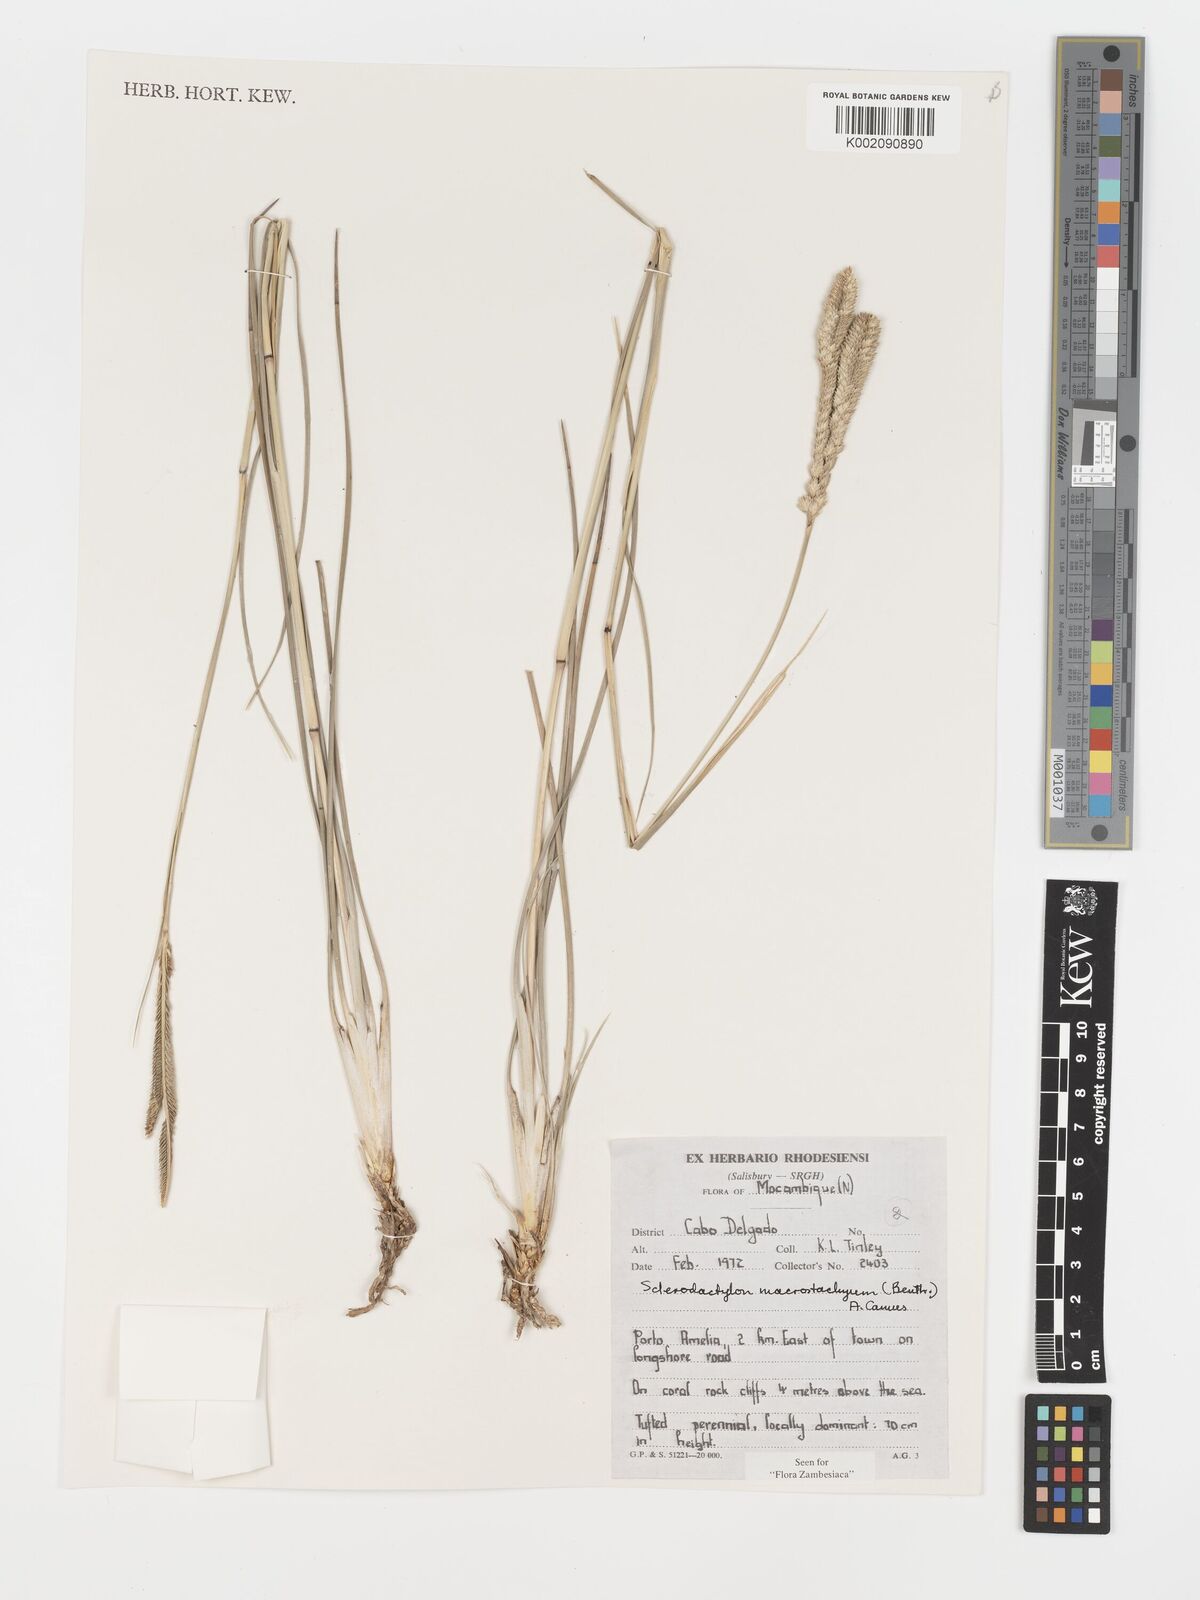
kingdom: Plantae
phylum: Tracheophyta
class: Liliopsida
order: Poales
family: Poaceae
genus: Sclerodactylon
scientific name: Sclerodactylon macrostachyum
